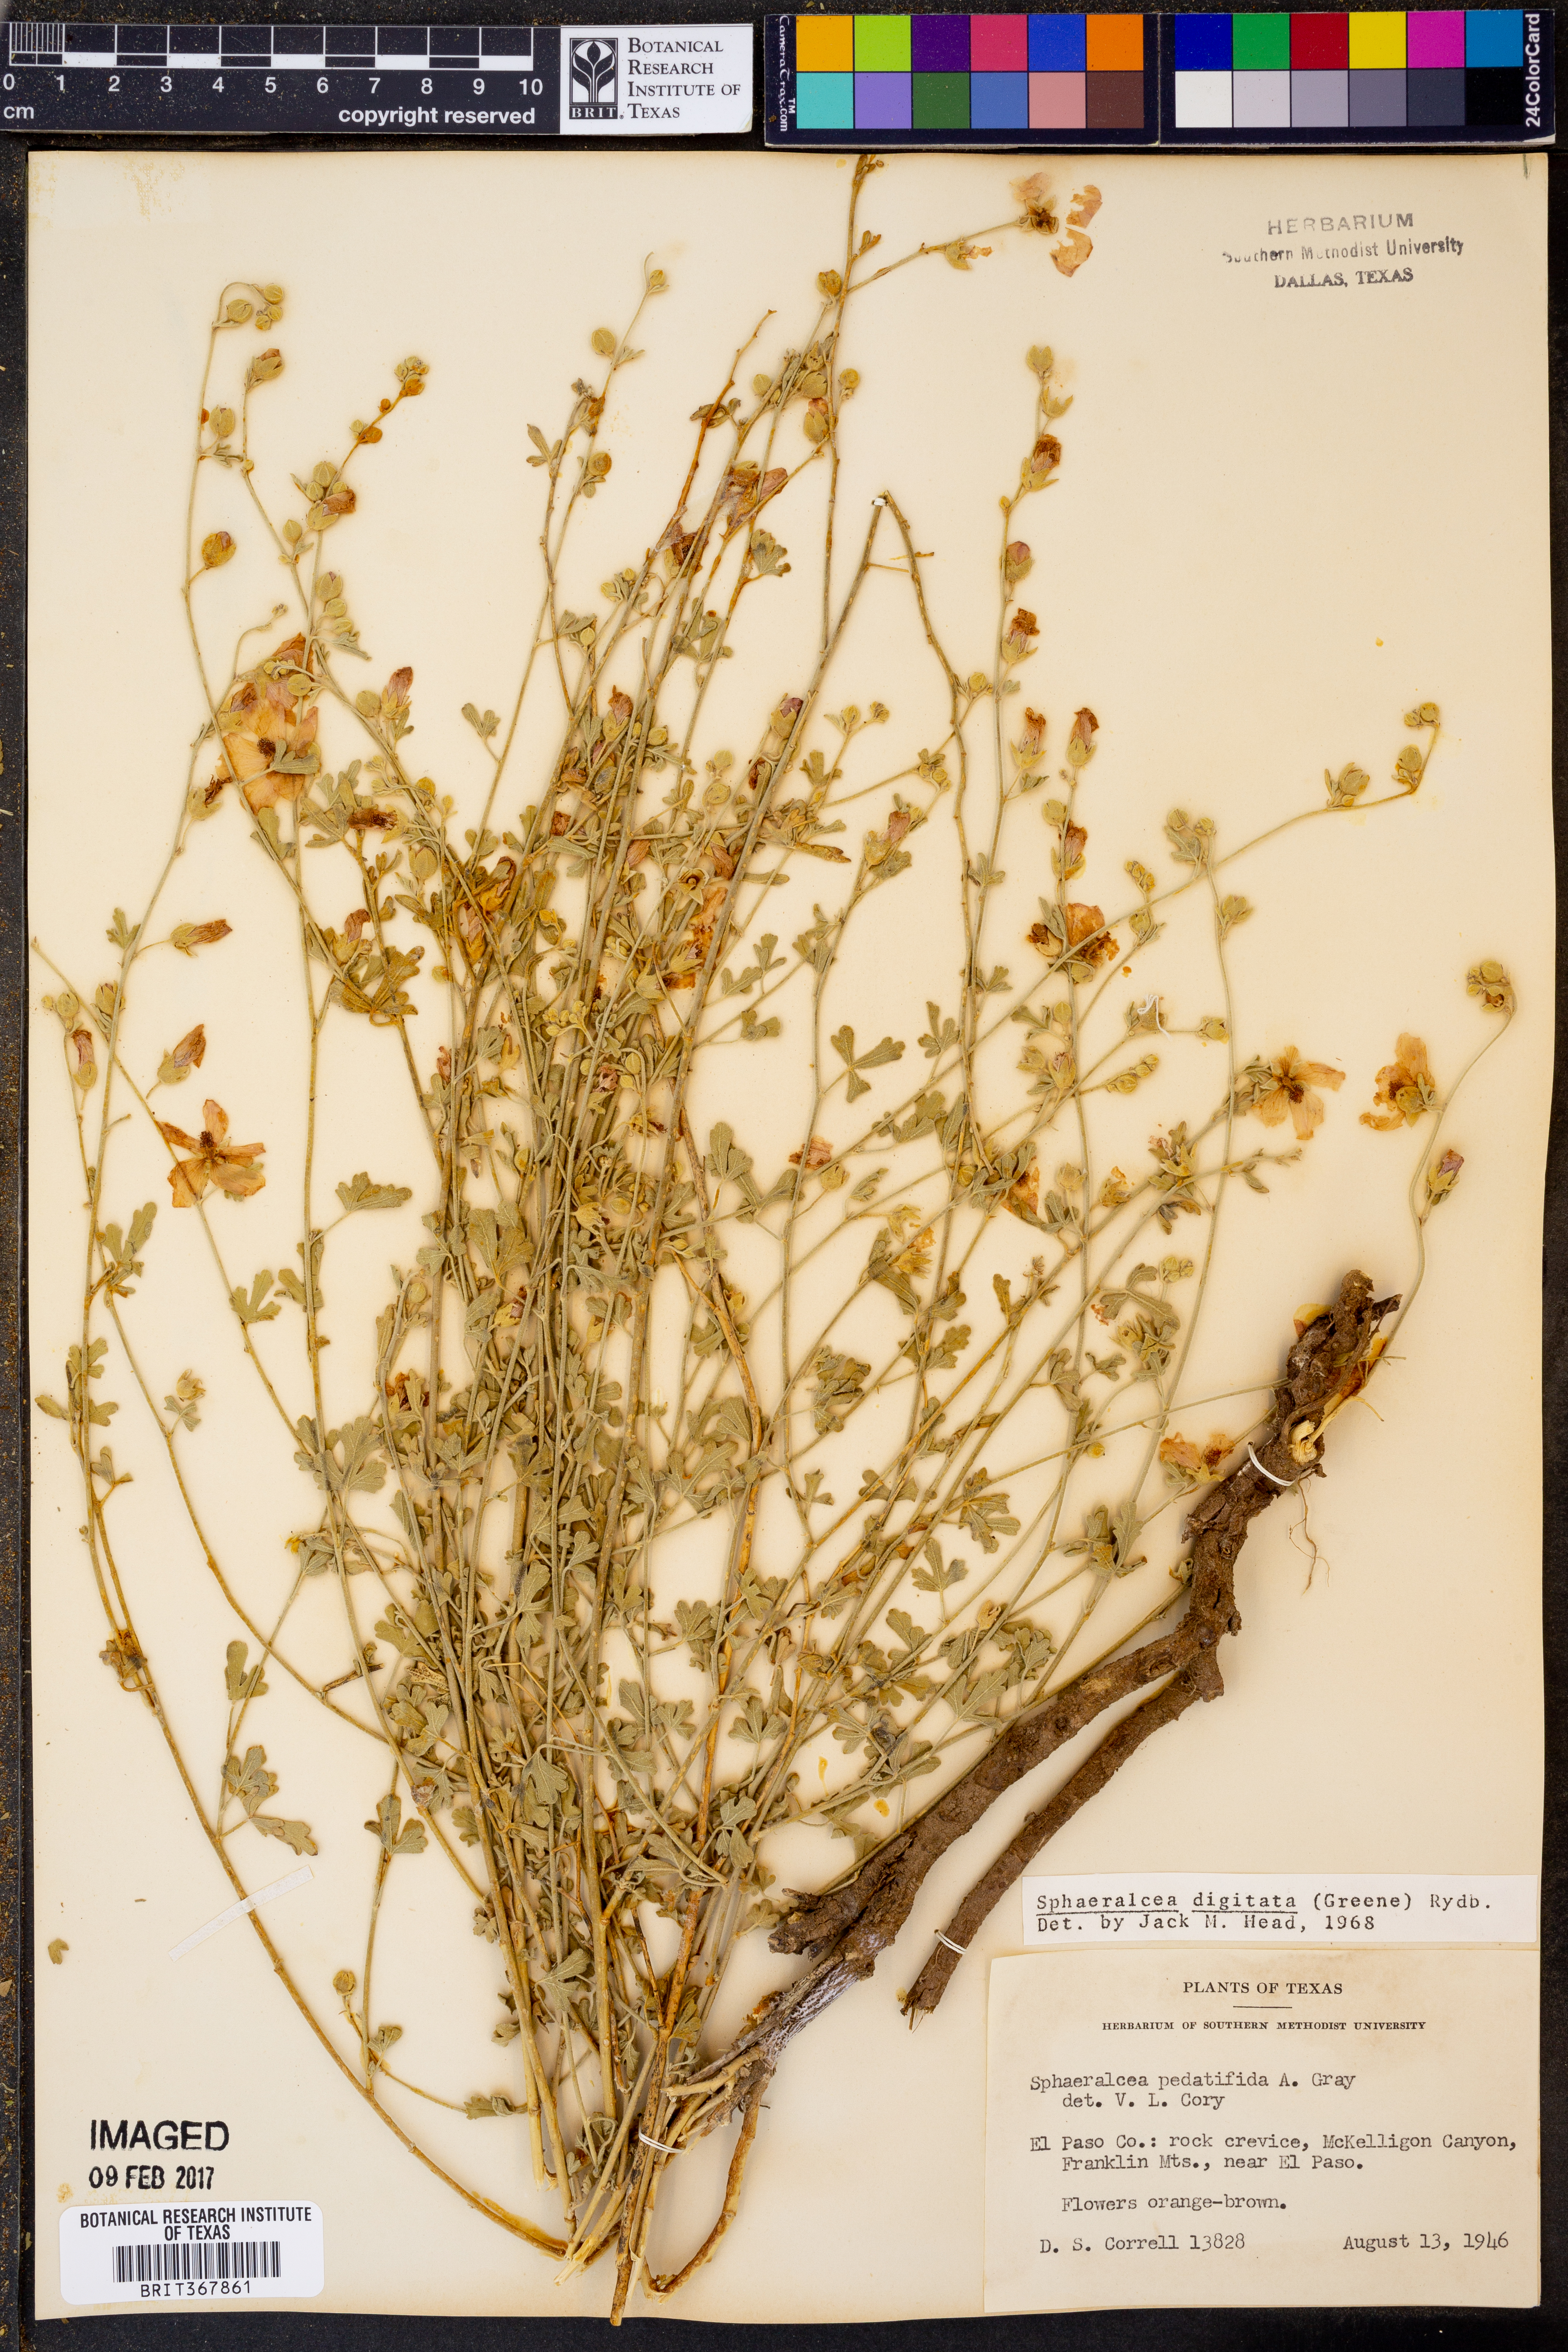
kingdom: Plantae
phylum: Tracheophyta
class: Magnoliopsida
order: Malvales
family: Malvaceae
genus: Sphaeralcea
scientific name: Sphaeralcea digitata
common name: Juniper-gobe-mallow
